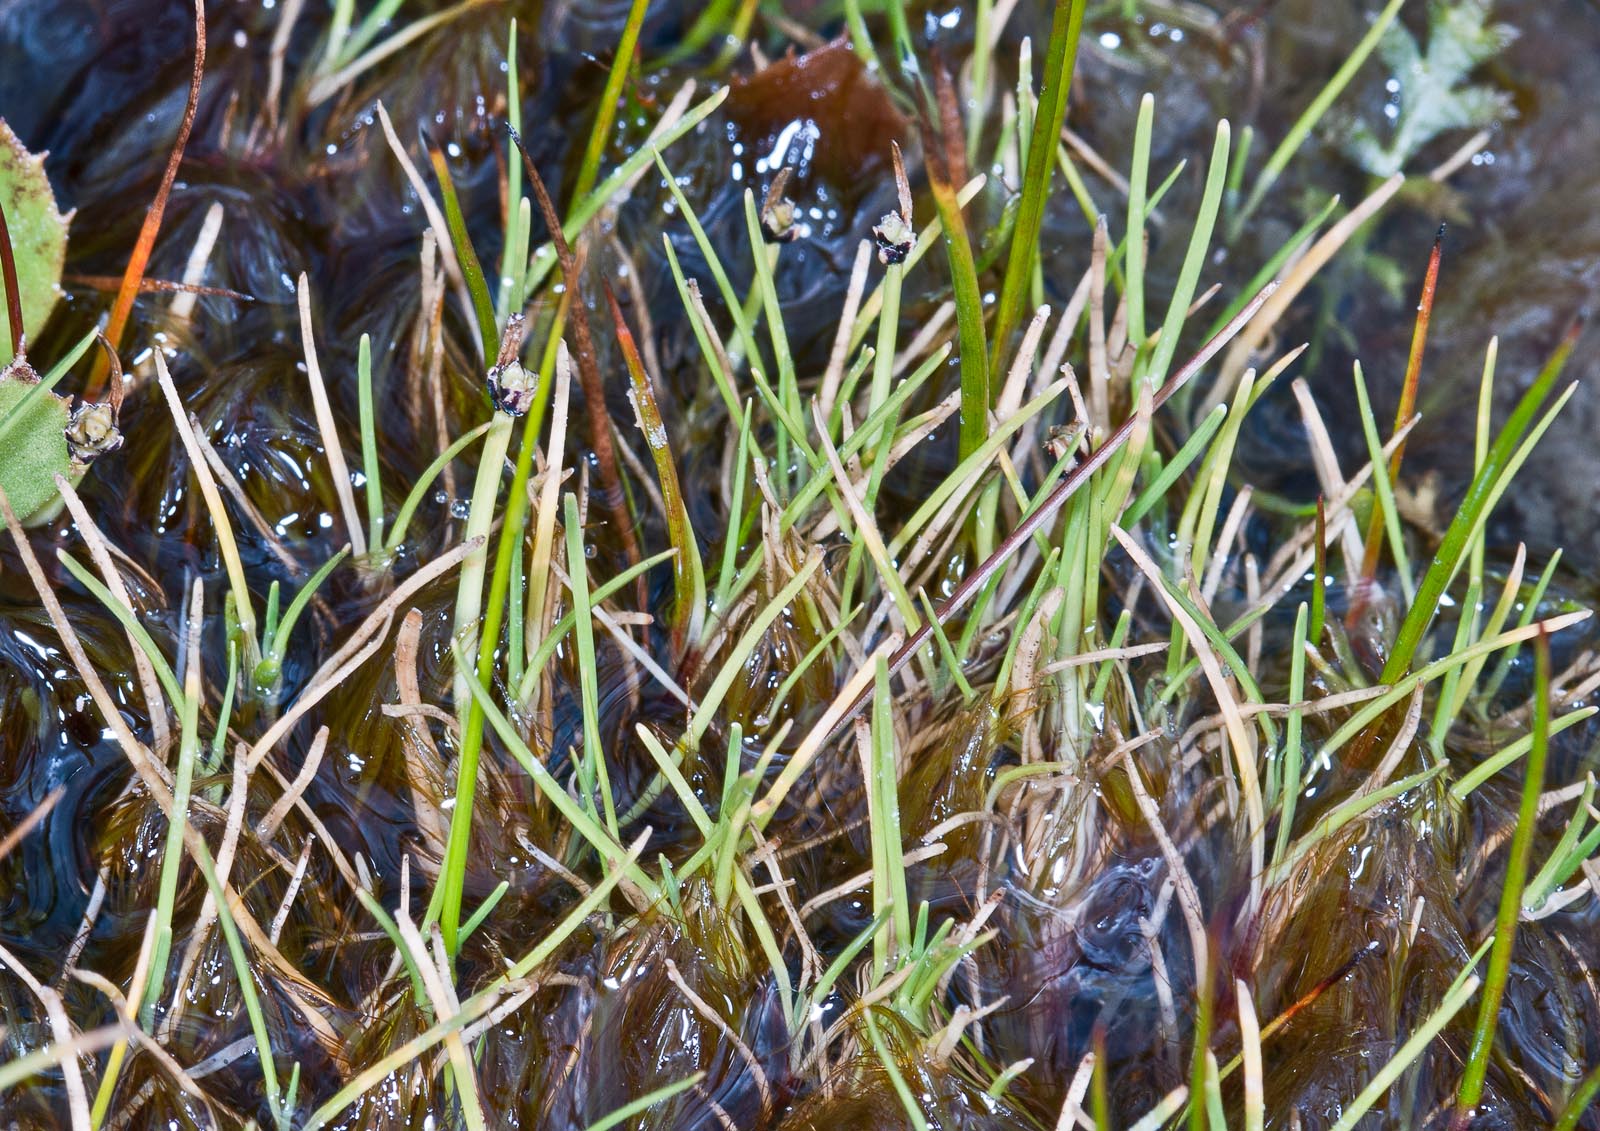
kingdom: Plantae
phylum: Tracheophyta
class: Liliopsida
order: Poales
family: Cyperaceae
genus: Isolepis
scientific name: Isolepis aucklandica
